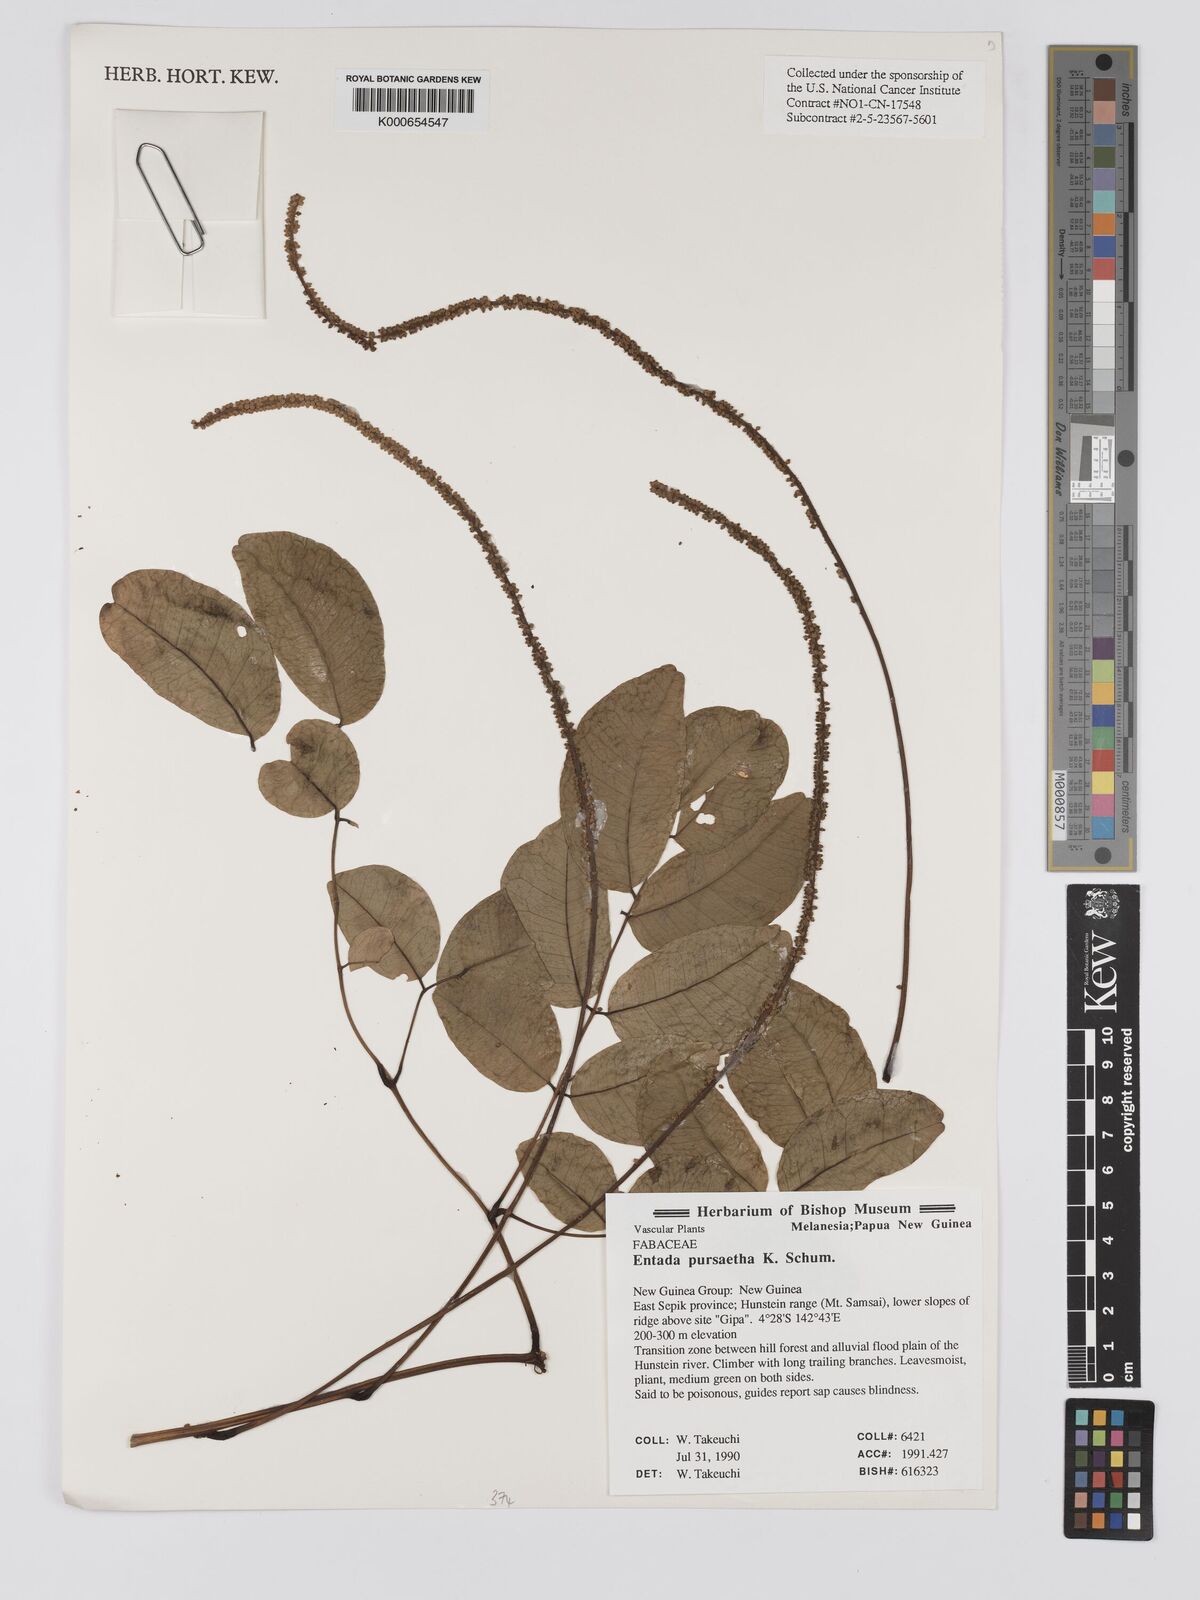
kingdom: Plantae
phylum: Tracheophyta
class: Magnoliopsida
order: Fabales
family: Fabaceae
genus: Entada
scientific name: Entada rheedei
